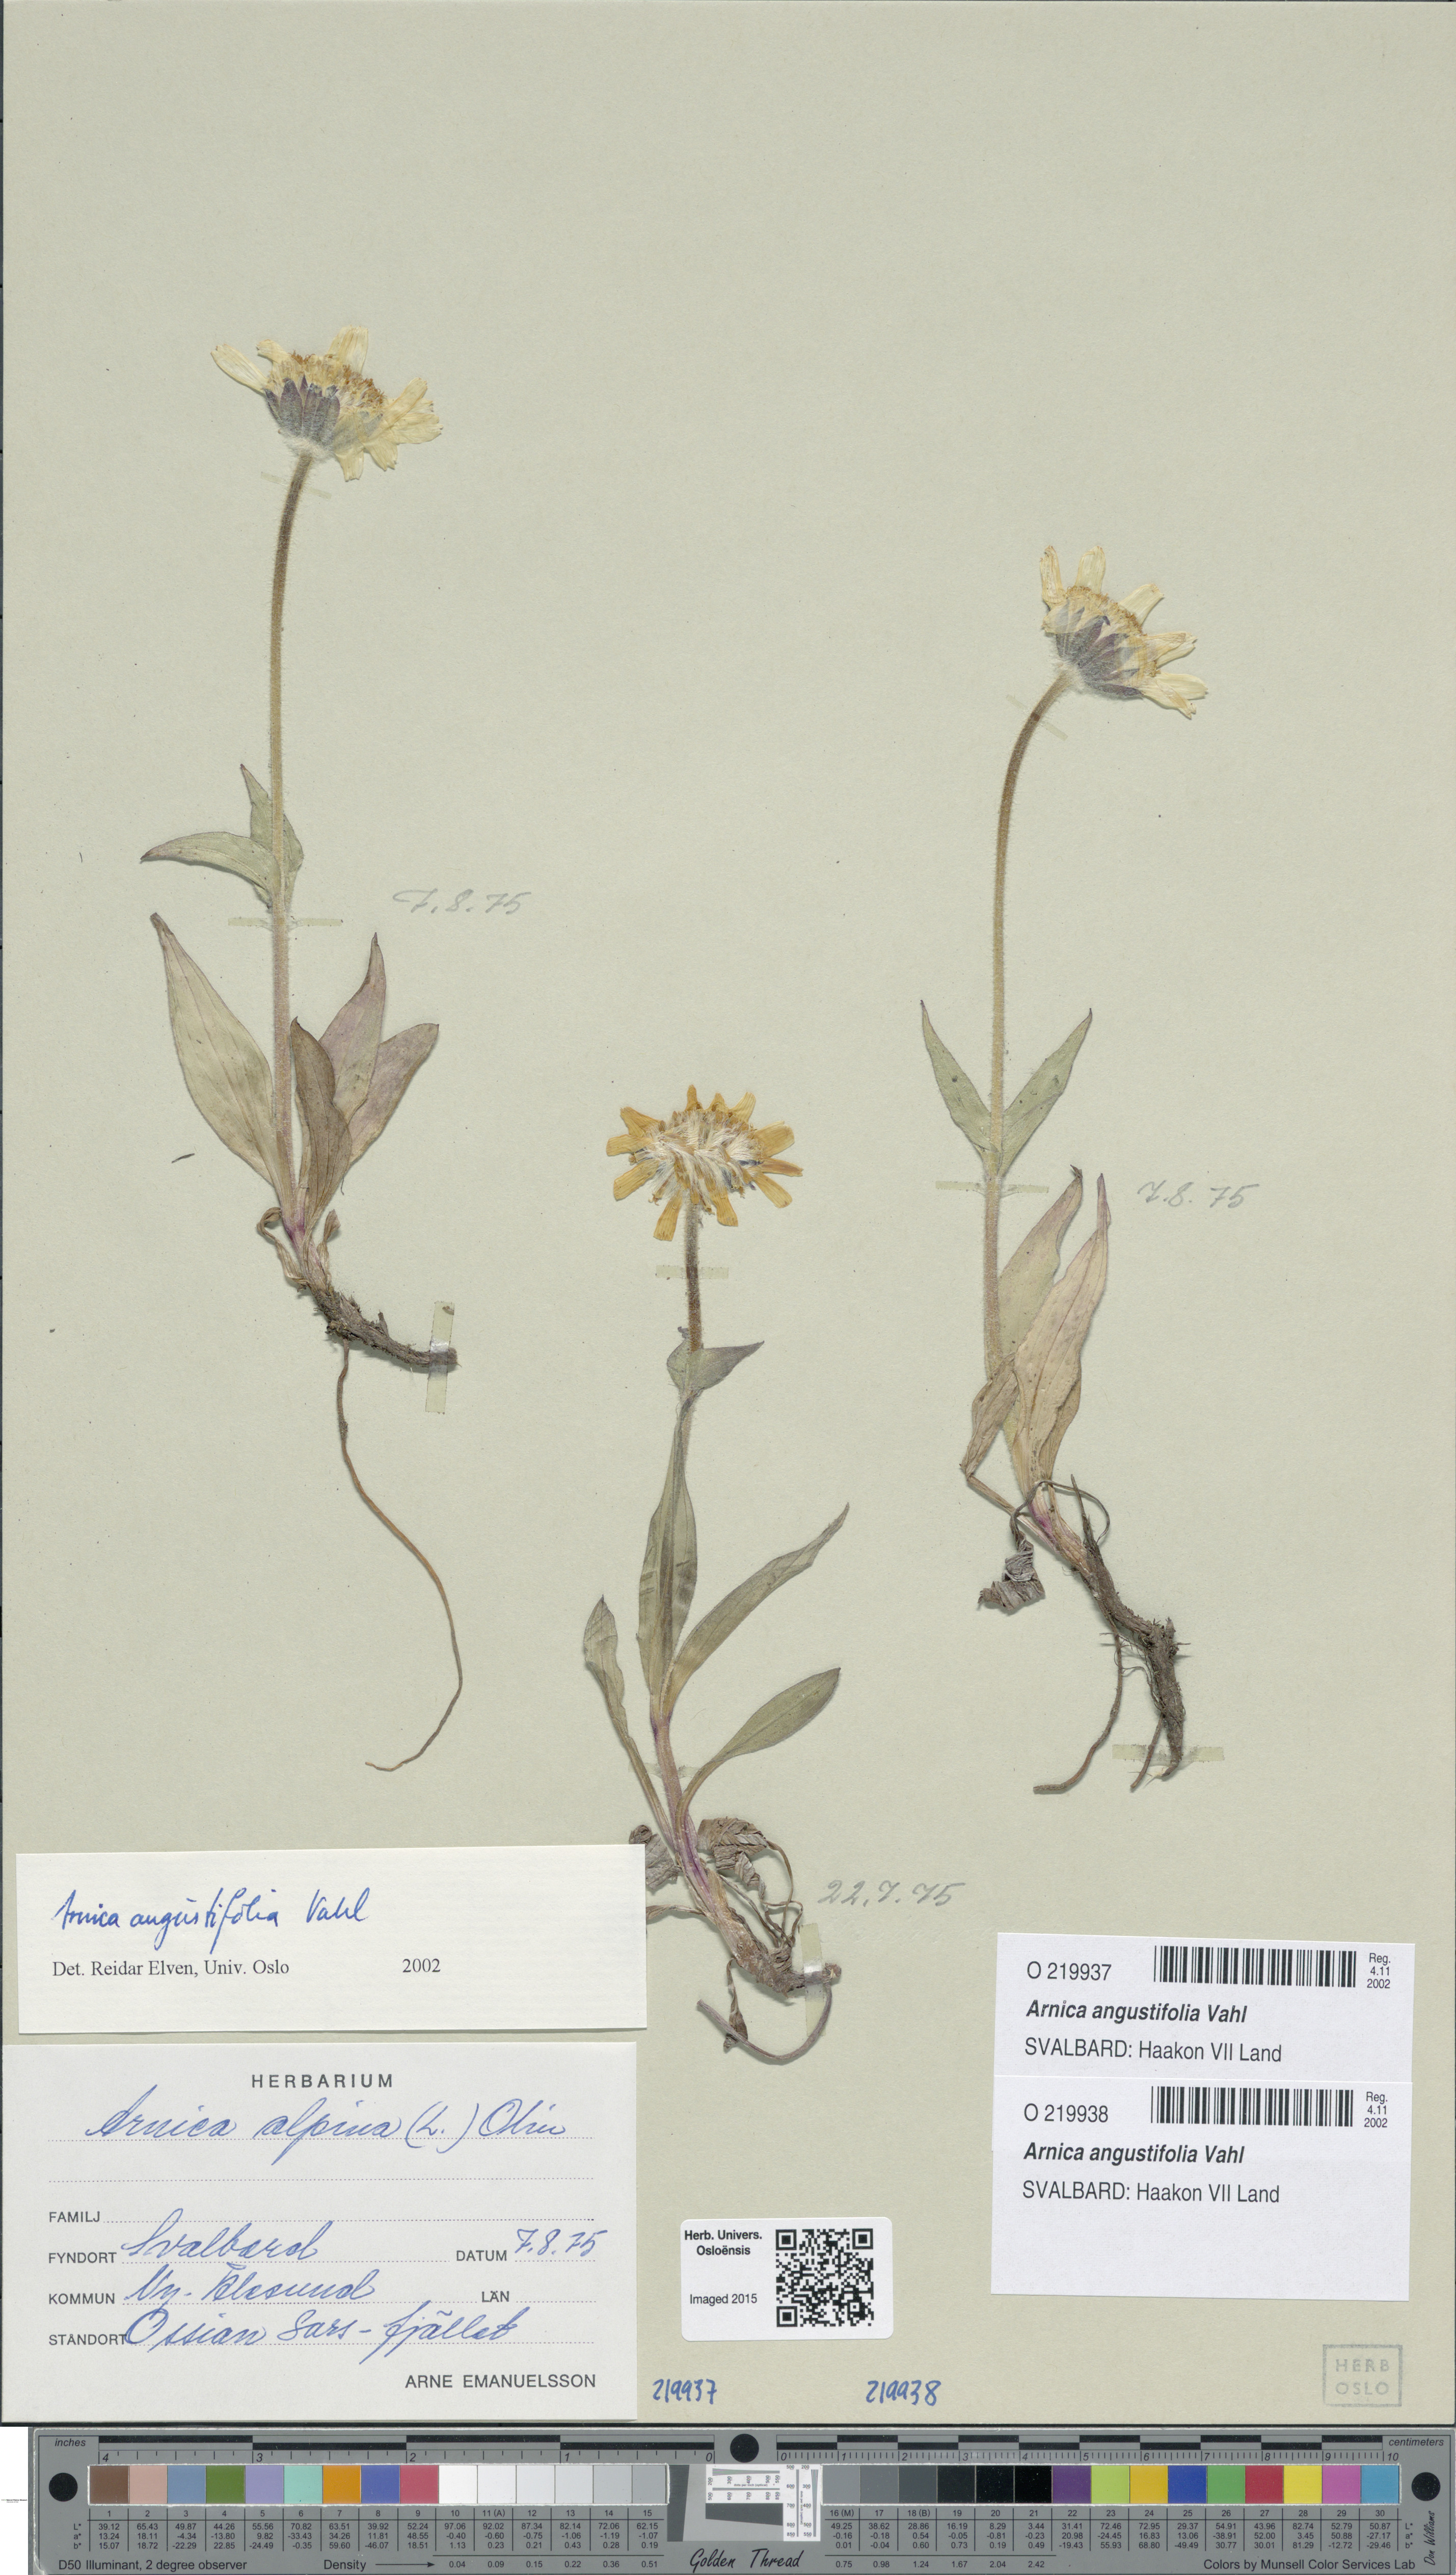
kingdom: Plantae
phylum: Tracheophyta
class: Magnoliopsida
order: Asterales
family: Asteraceae
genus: Arnica
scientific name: Arnica angustifolia
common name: Arctic arnica
